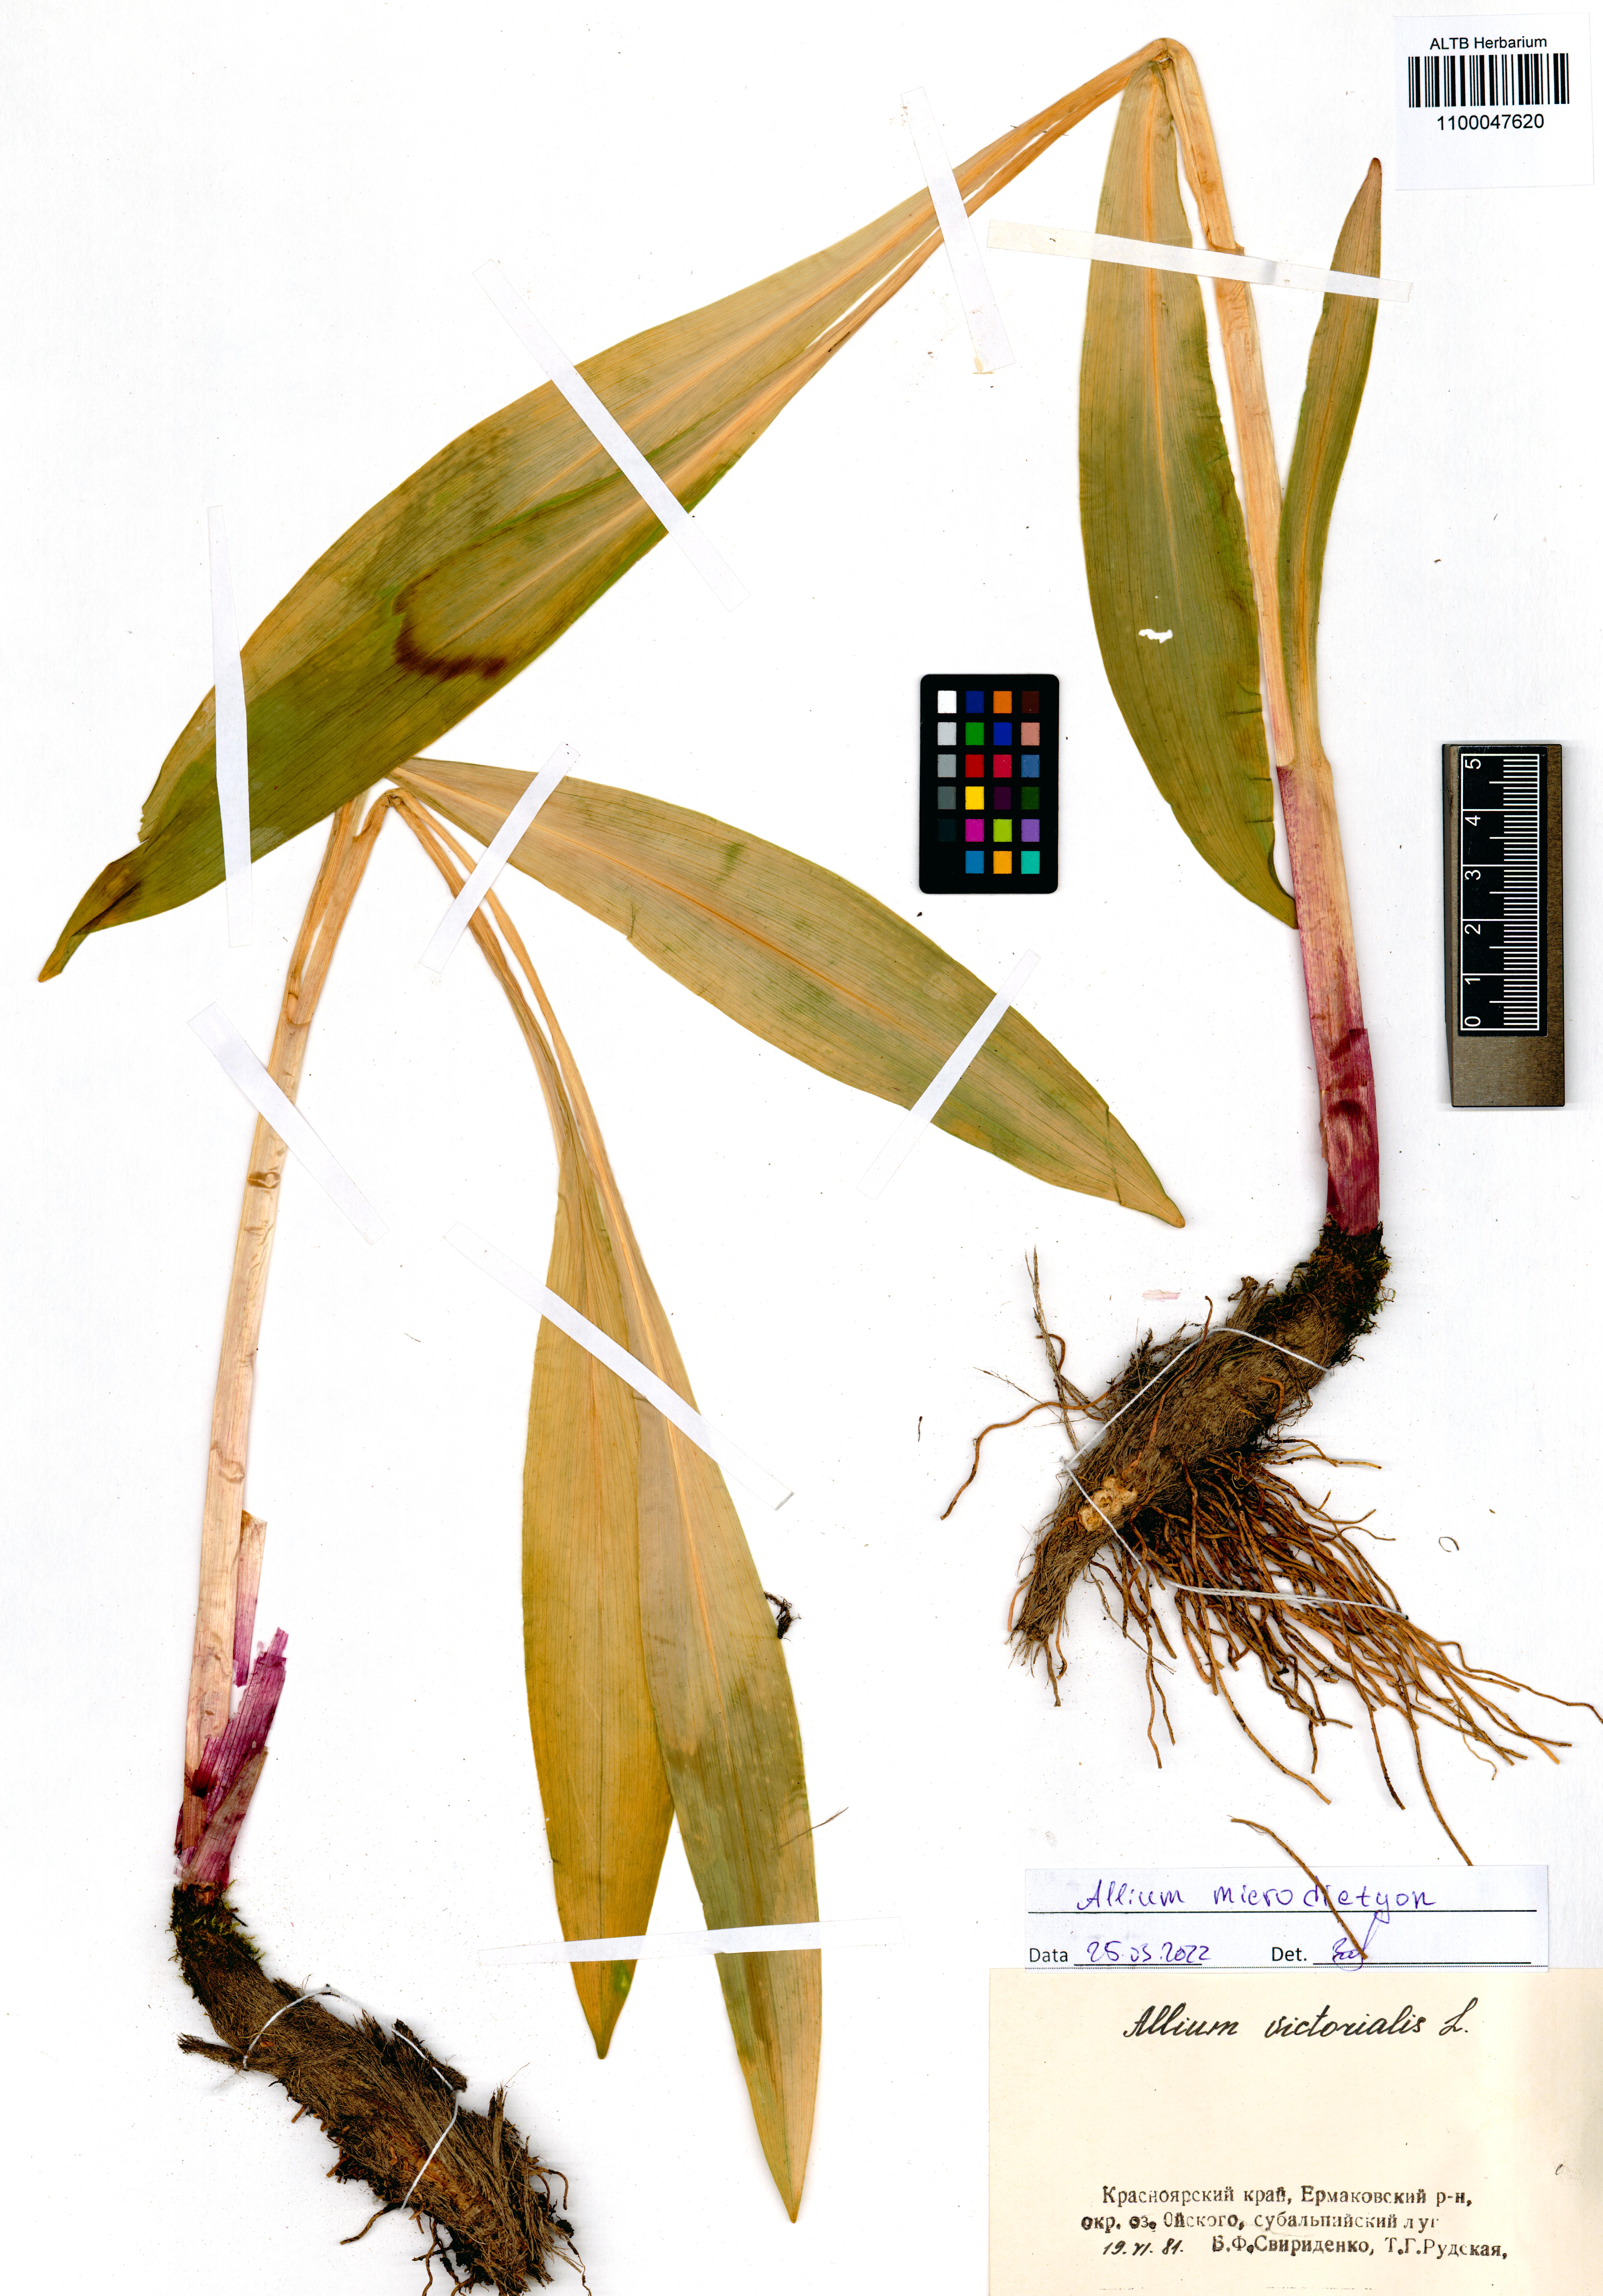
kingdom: Plantae
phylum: Tracheophyta
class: Liliopsida
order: Asparagales
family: Amaryllidaceae
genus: Allium
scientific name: Allium microdictyon
